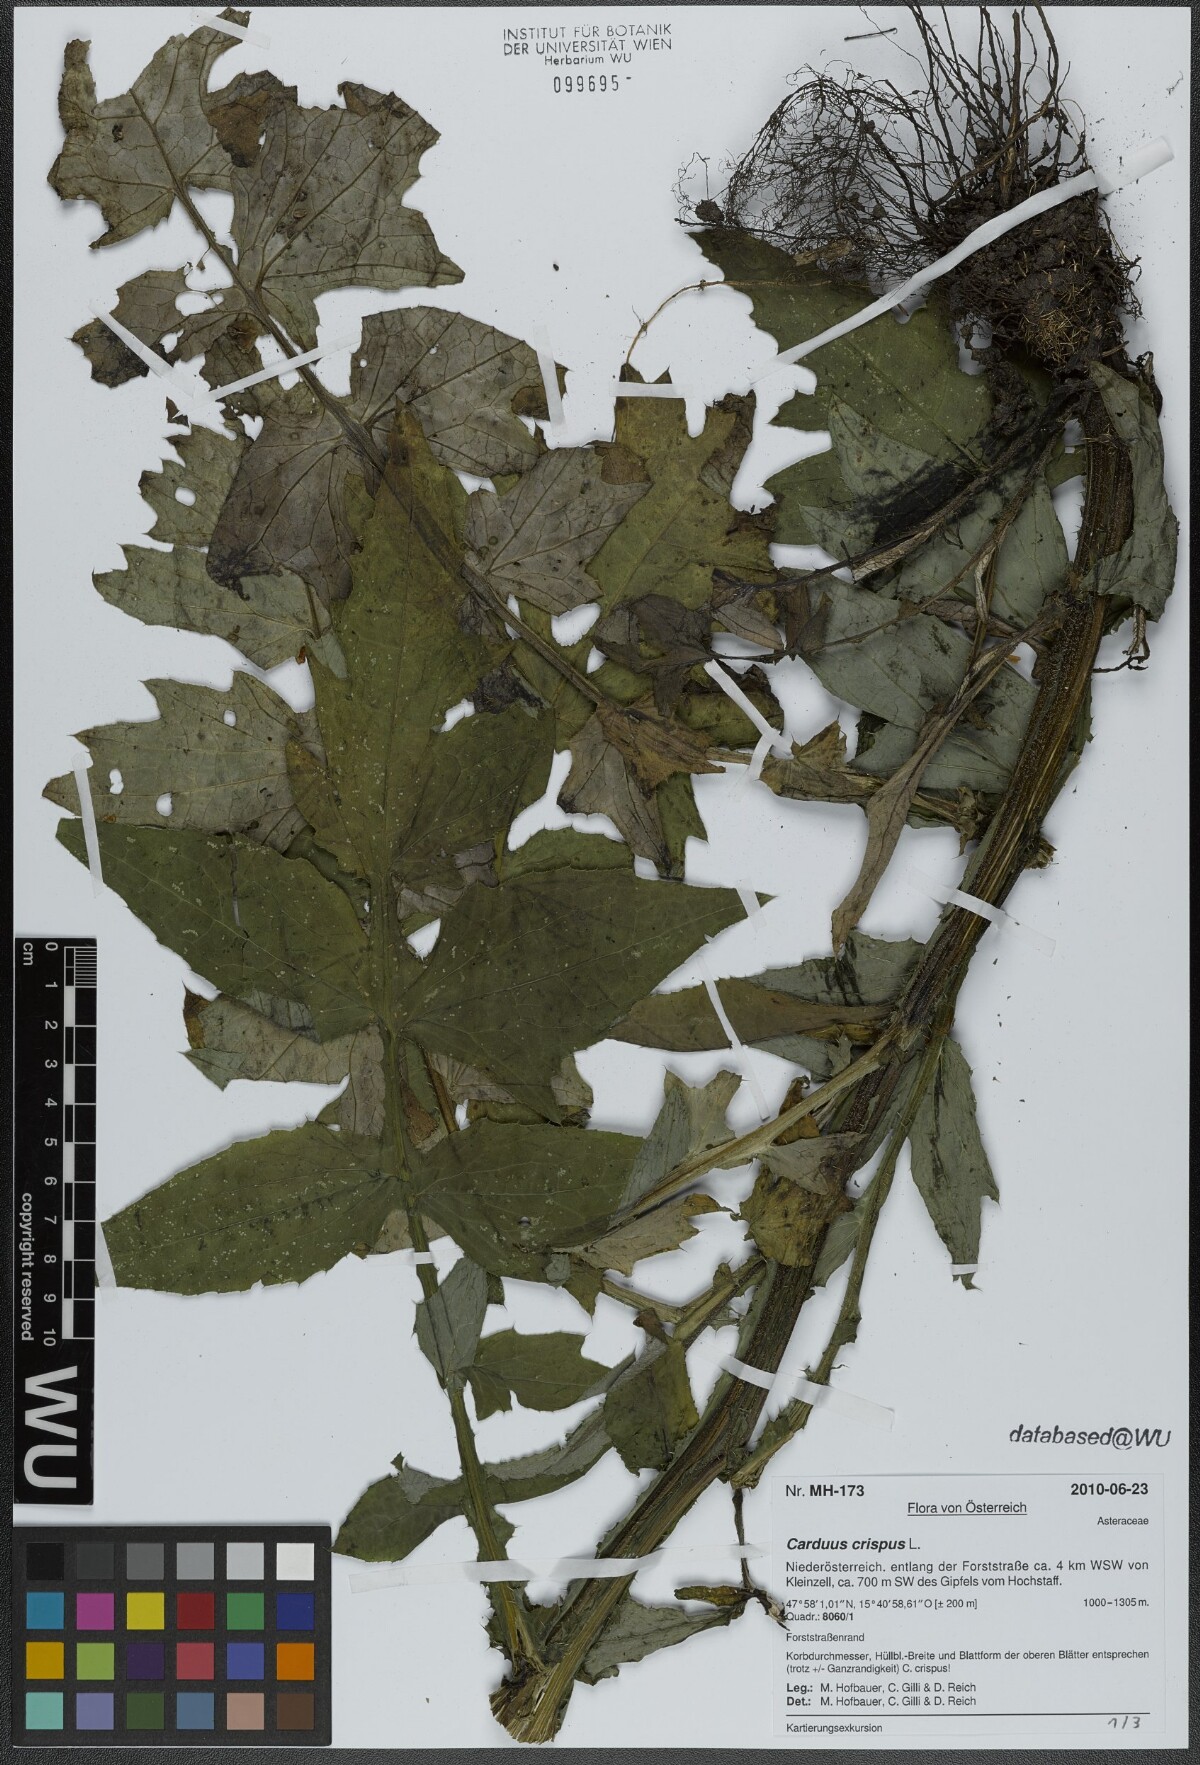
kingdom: Plantae
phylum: Tracheophyta
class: Magnoliopsida
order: Asterales
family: Asteraceae
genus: Carduus
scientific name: Carduus crispus
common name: Welted thistle
